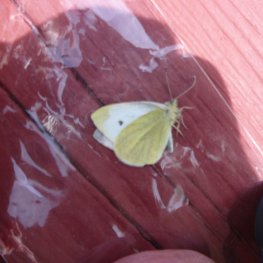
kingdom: Animalia
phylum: Arthropoda
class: Insecta
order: Lepidoptera
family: Pieridae
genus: Pieris
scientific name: Pieris rapae
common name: Cabbage White
